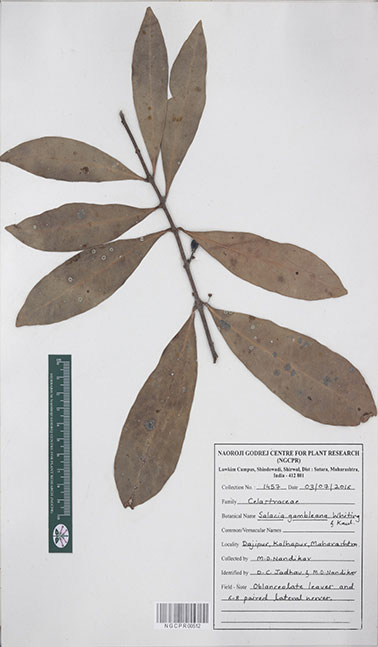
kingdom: Plantae
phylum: Tracheophyta
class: Magnoliopsida
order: Celastrales
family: Celastraceae
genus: Salacia
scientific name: Salacia gambleana
